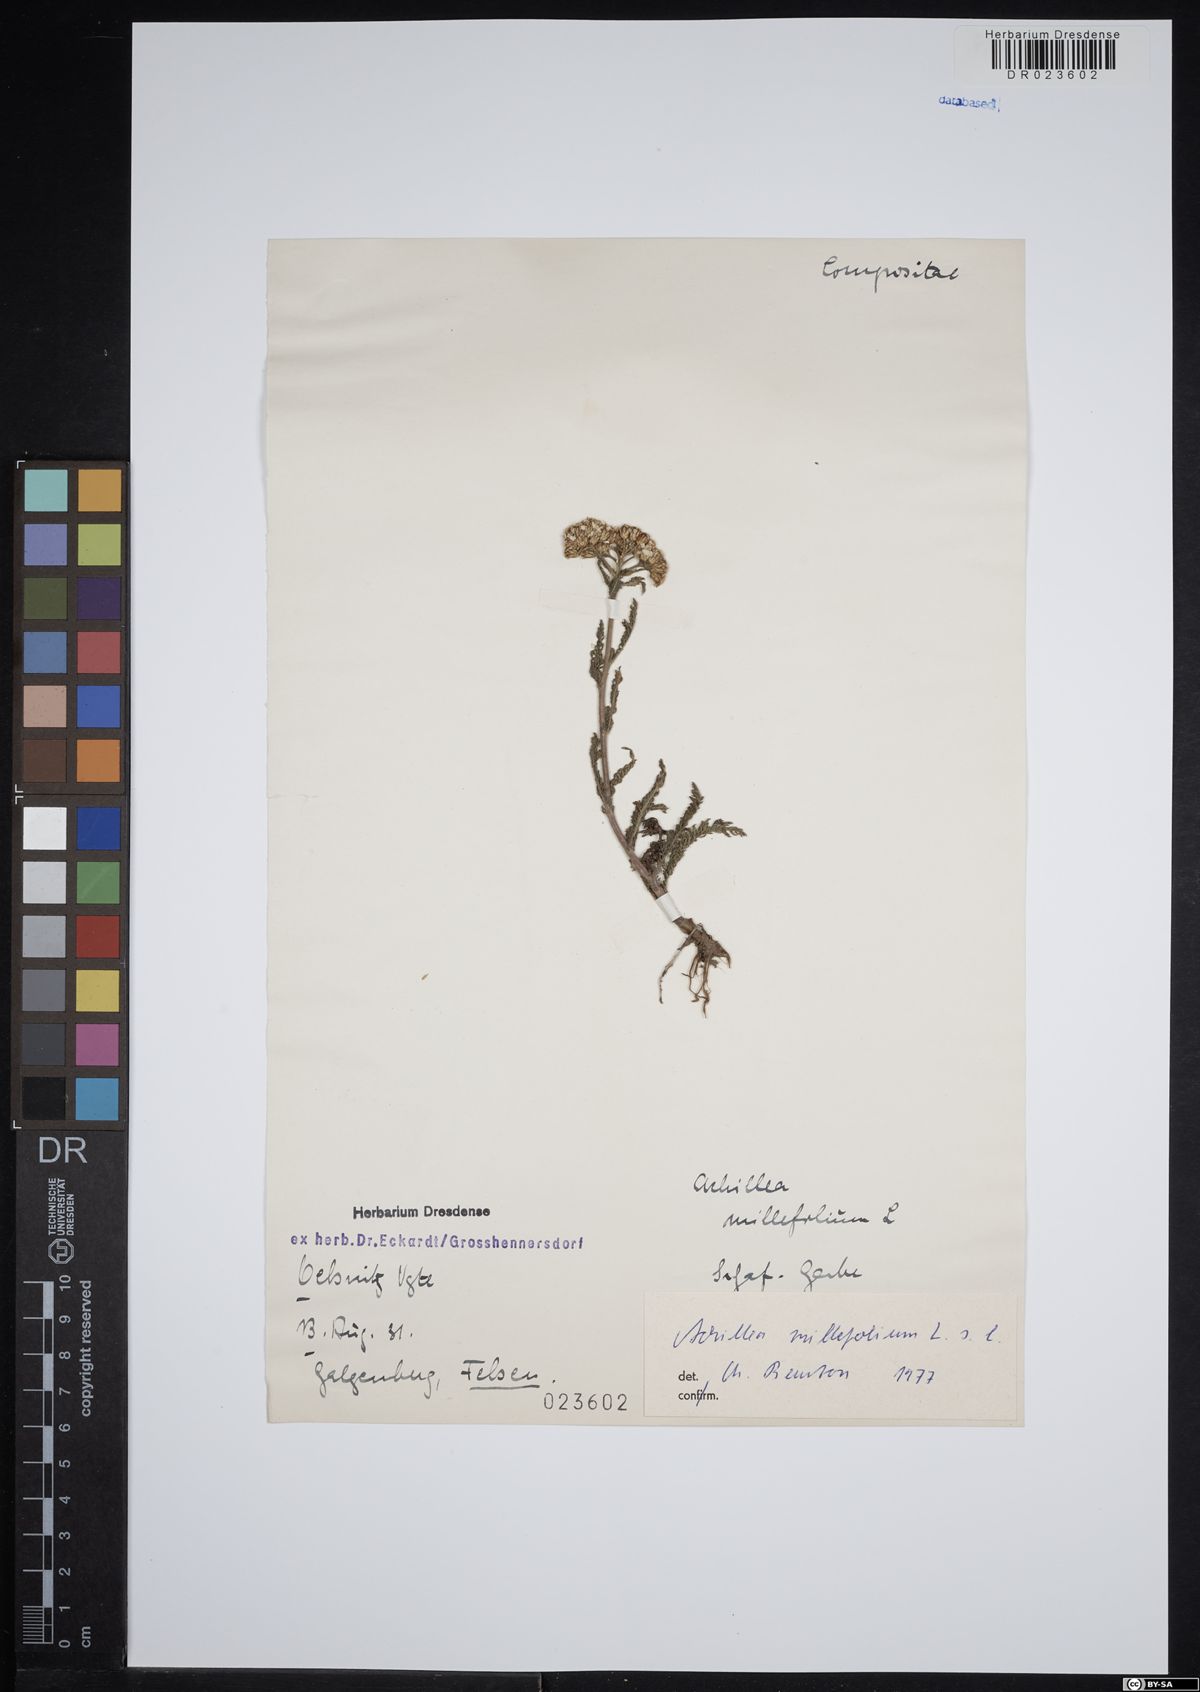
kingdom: Plantae
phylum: Tracheophyta
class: Magnoliopsida
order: Asterales
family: Asteraceae
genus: Achillea
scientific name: Achillea millefolium
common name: Yarrow
